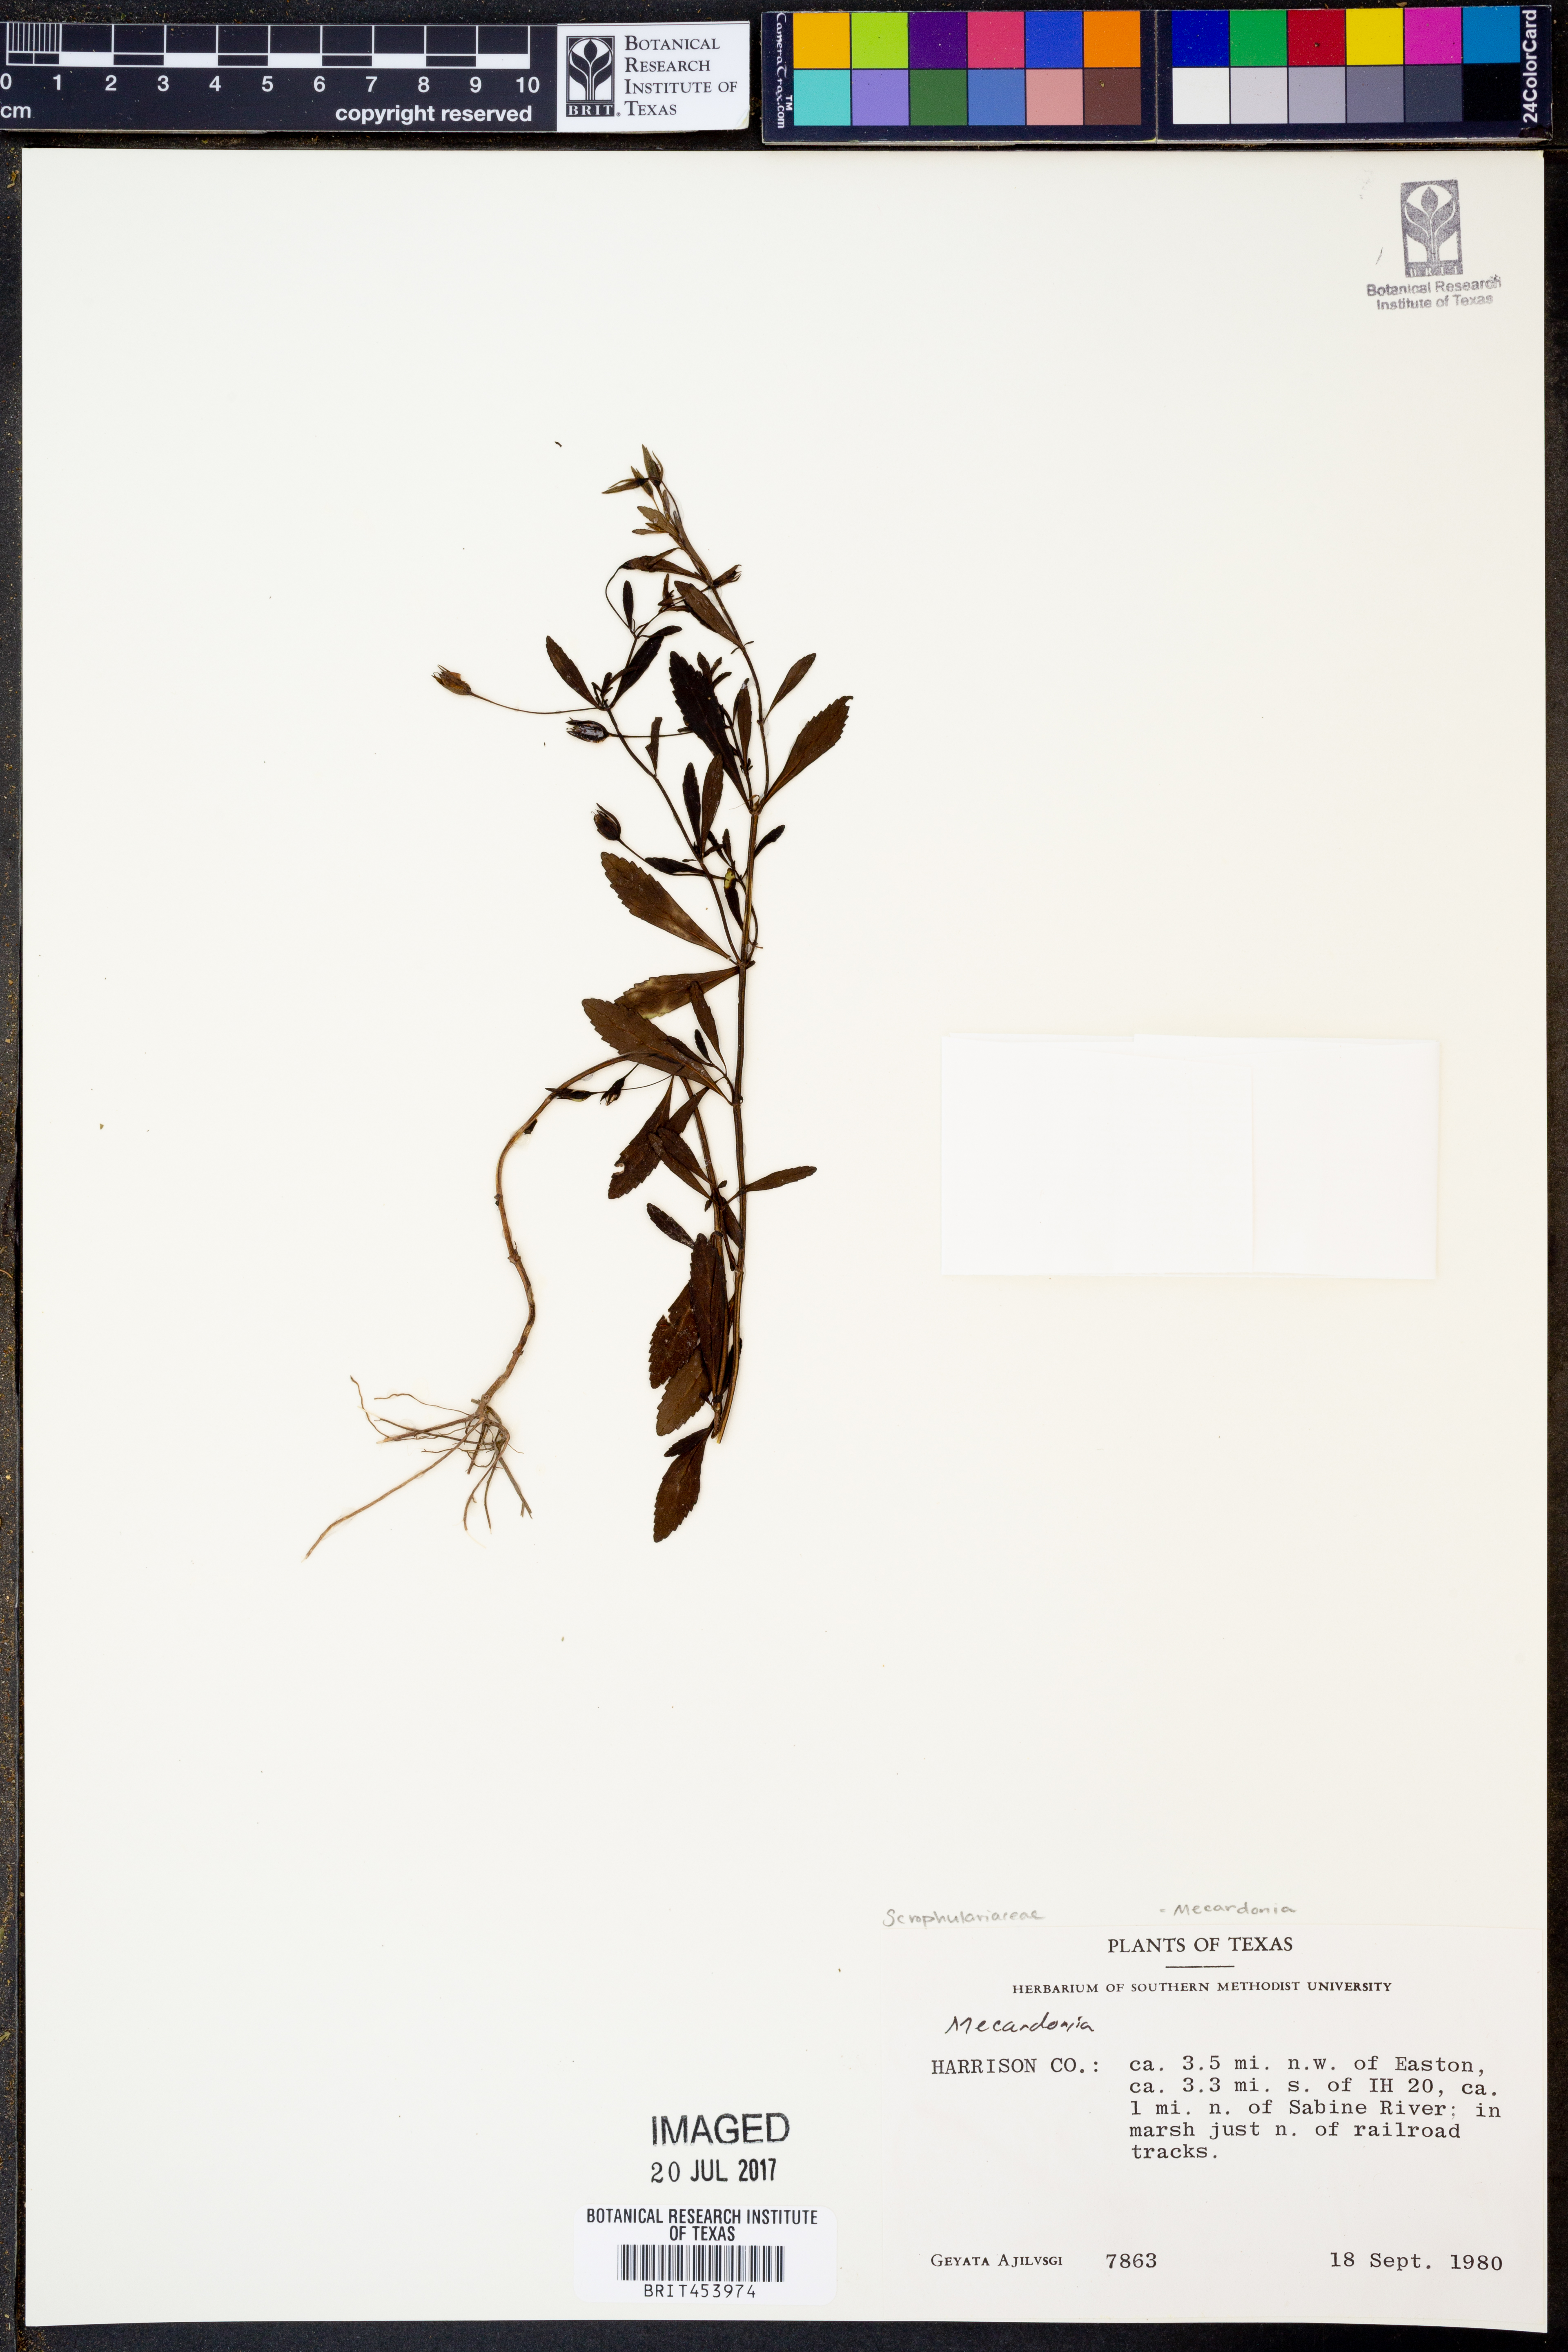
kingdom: Plantae
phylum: Tracheophyta
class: Magnoliopsida
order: Lamiales
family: Plantaginaceae
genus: Mecardonia
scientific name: Mecardonia
